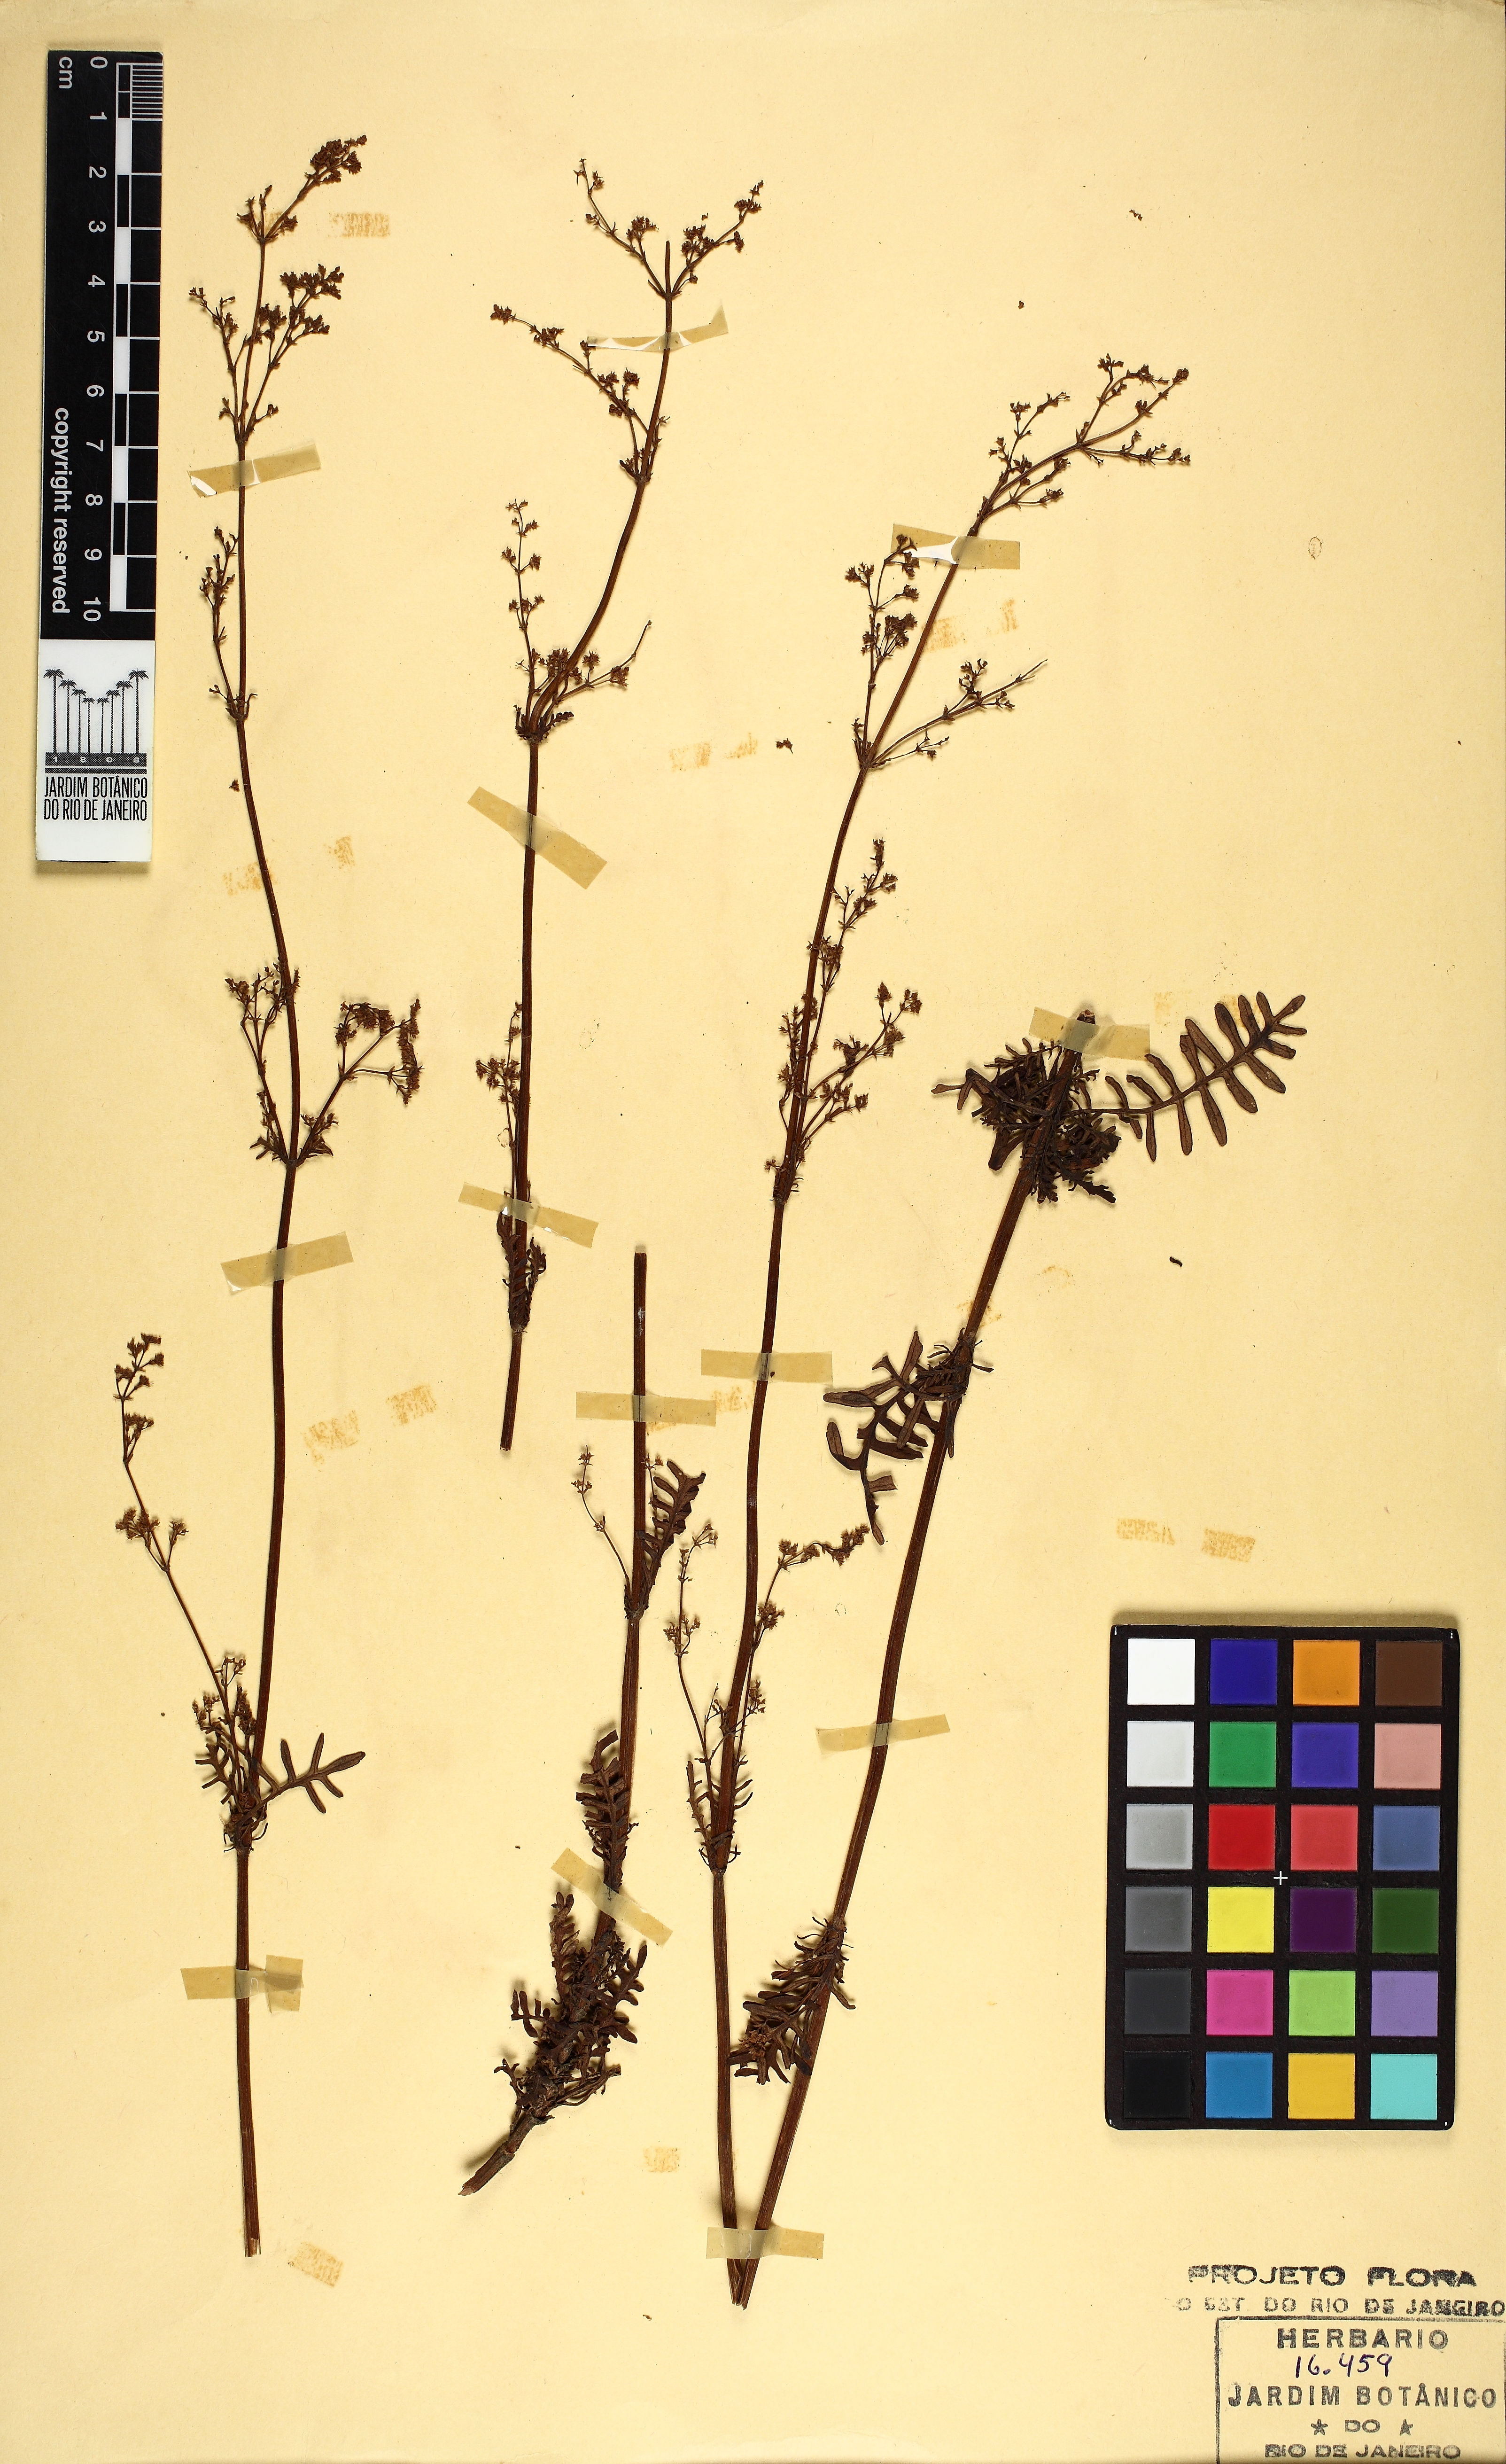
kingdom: Plantae
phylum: Tracheophyta
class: Magnoliopsida
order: Dipsacales
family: Caprifoliaceae
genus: Valeriana
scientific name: Valeriana glaziovii
